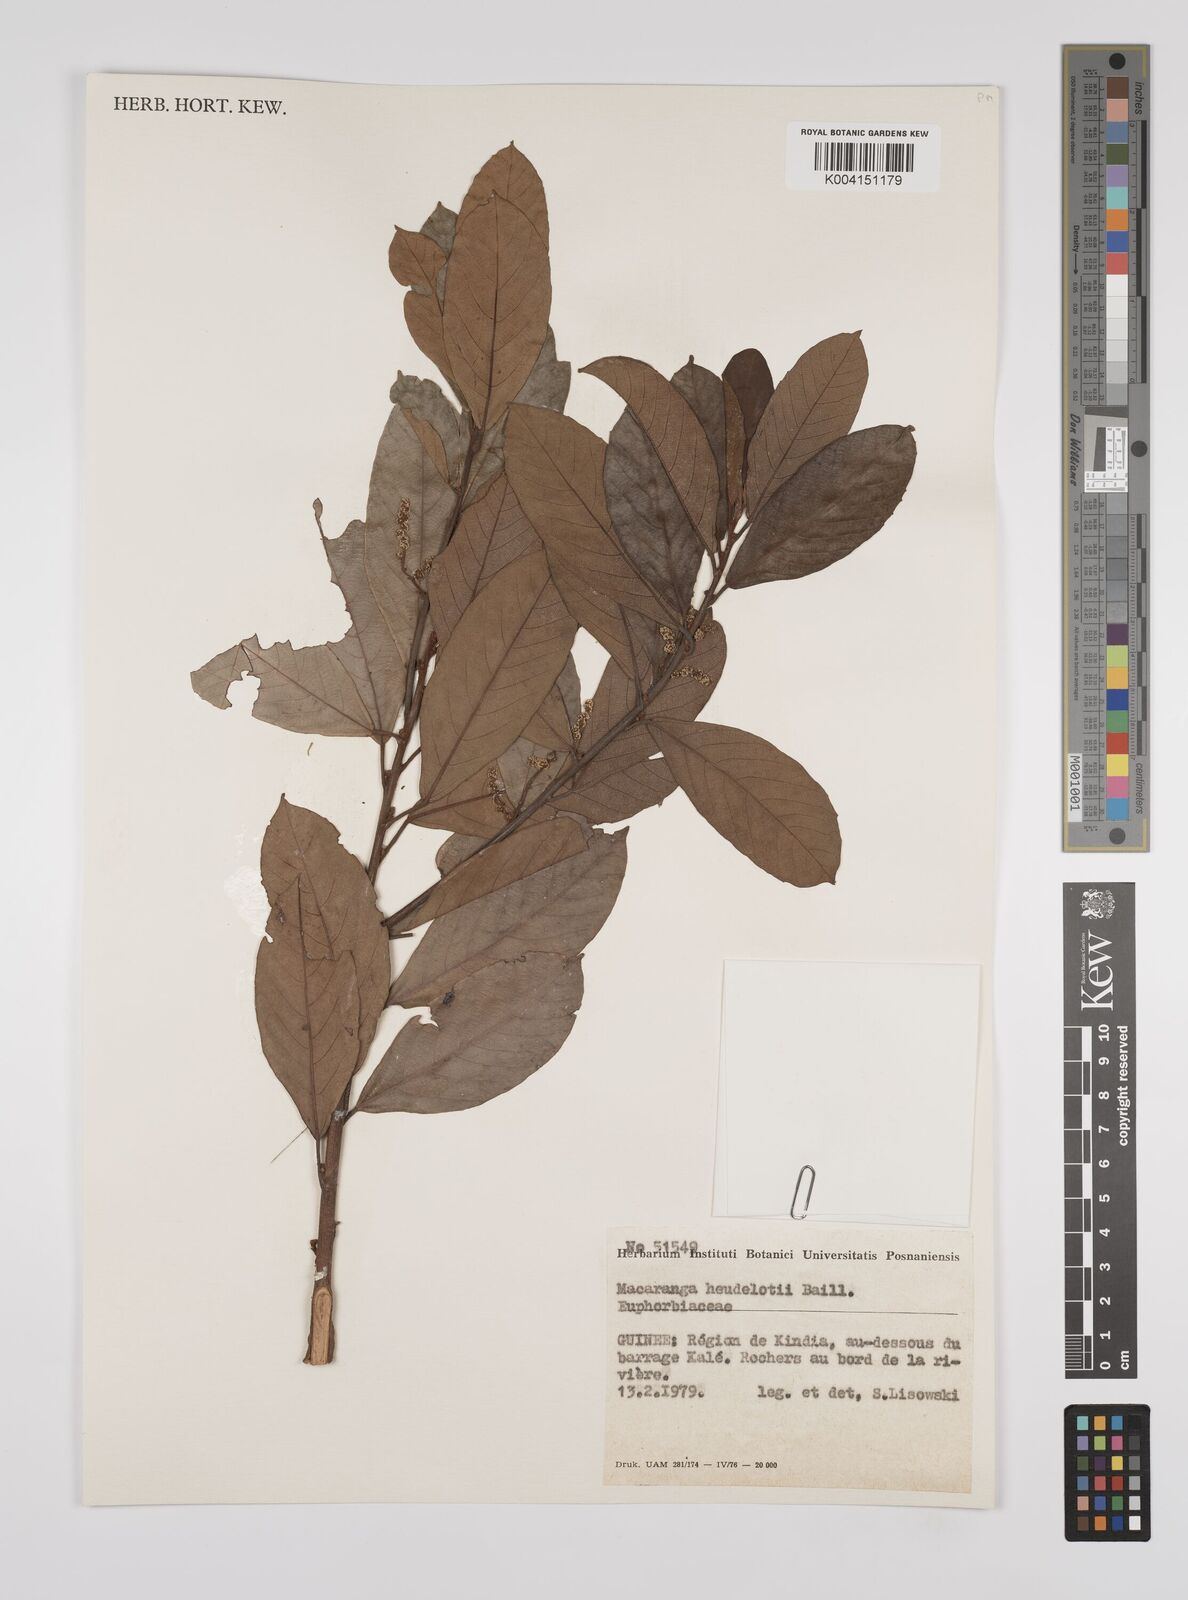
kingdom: Plantae
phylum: Tracheophyta
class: Magnoliopsida
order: Malpighiales
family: Euphorbiaceae
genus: Macaranga
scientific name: Macaranga heudelotii
